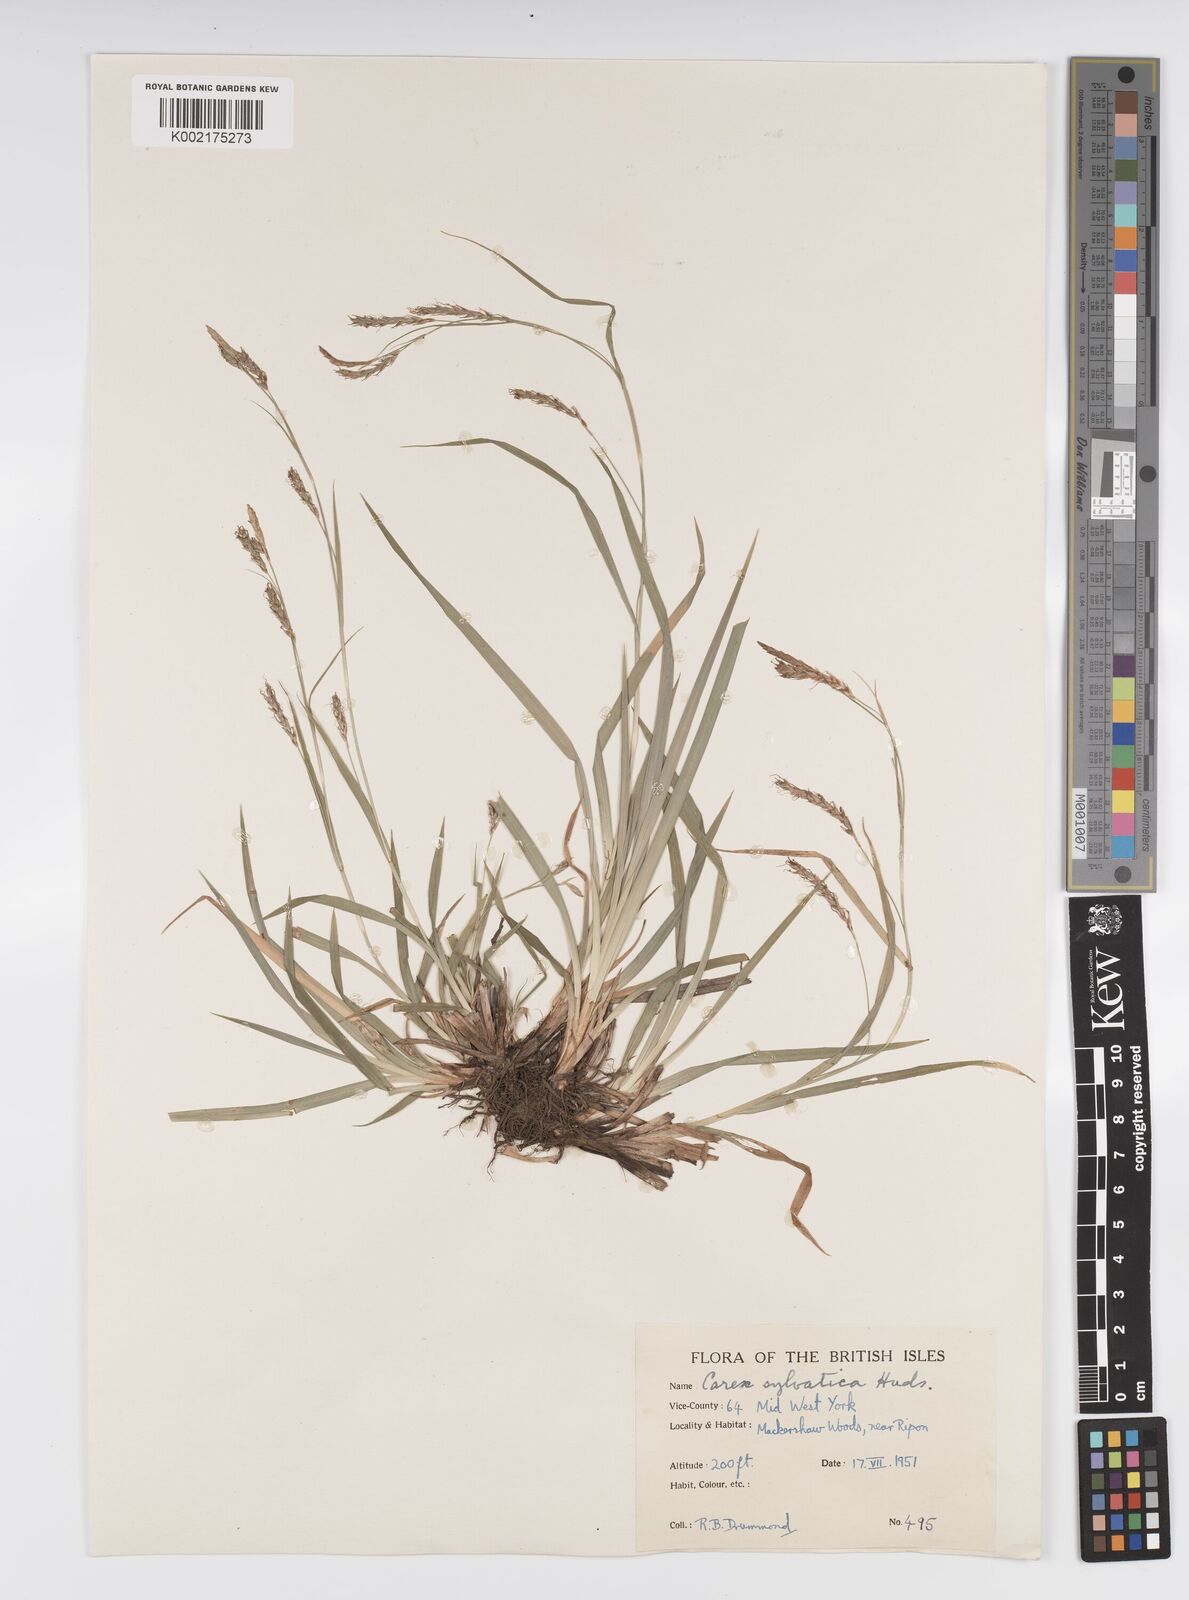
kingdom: Plantae
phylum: Tracheophyta
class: Liliopsida
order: Poales
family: Cyperaceae
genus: Carex
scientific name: Carex sylvatica
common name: Wood-sedge
